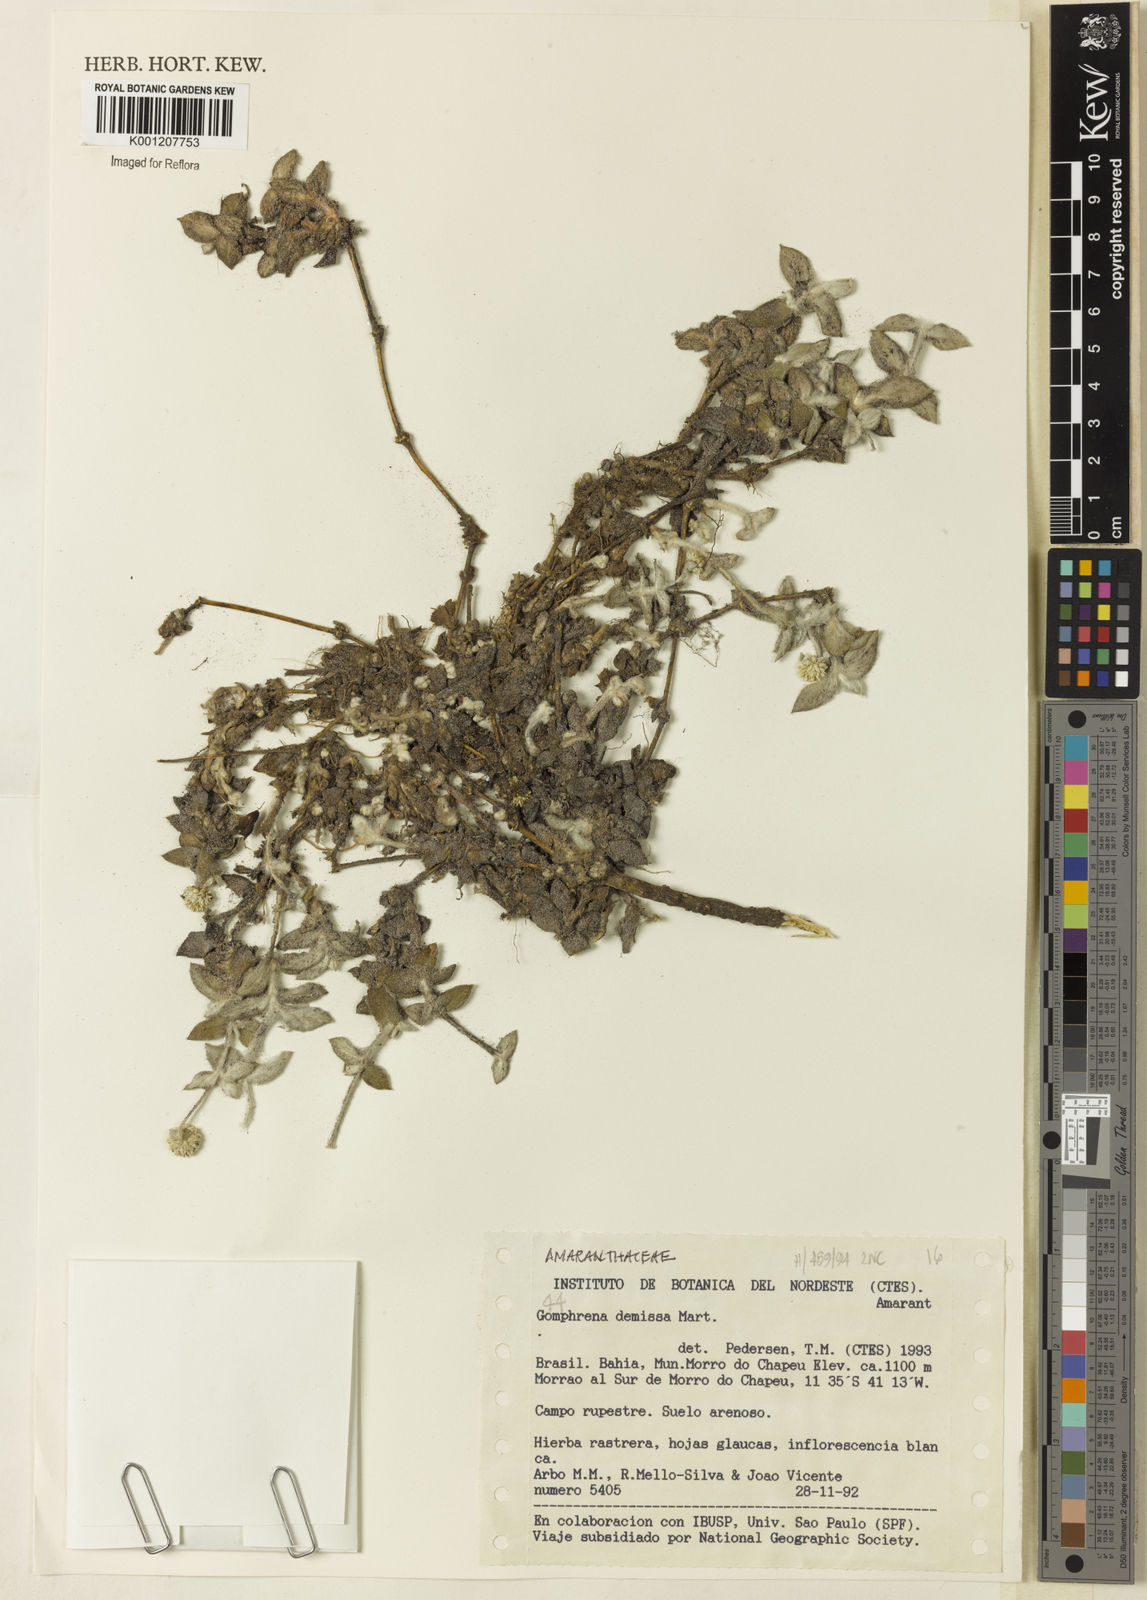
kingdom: Plantae
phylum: Tracheophyta
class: Magnoliopsida
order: Caryophyllales
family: Amaranthaceae
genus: Gomphrena
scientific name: Gomphrena demissa
